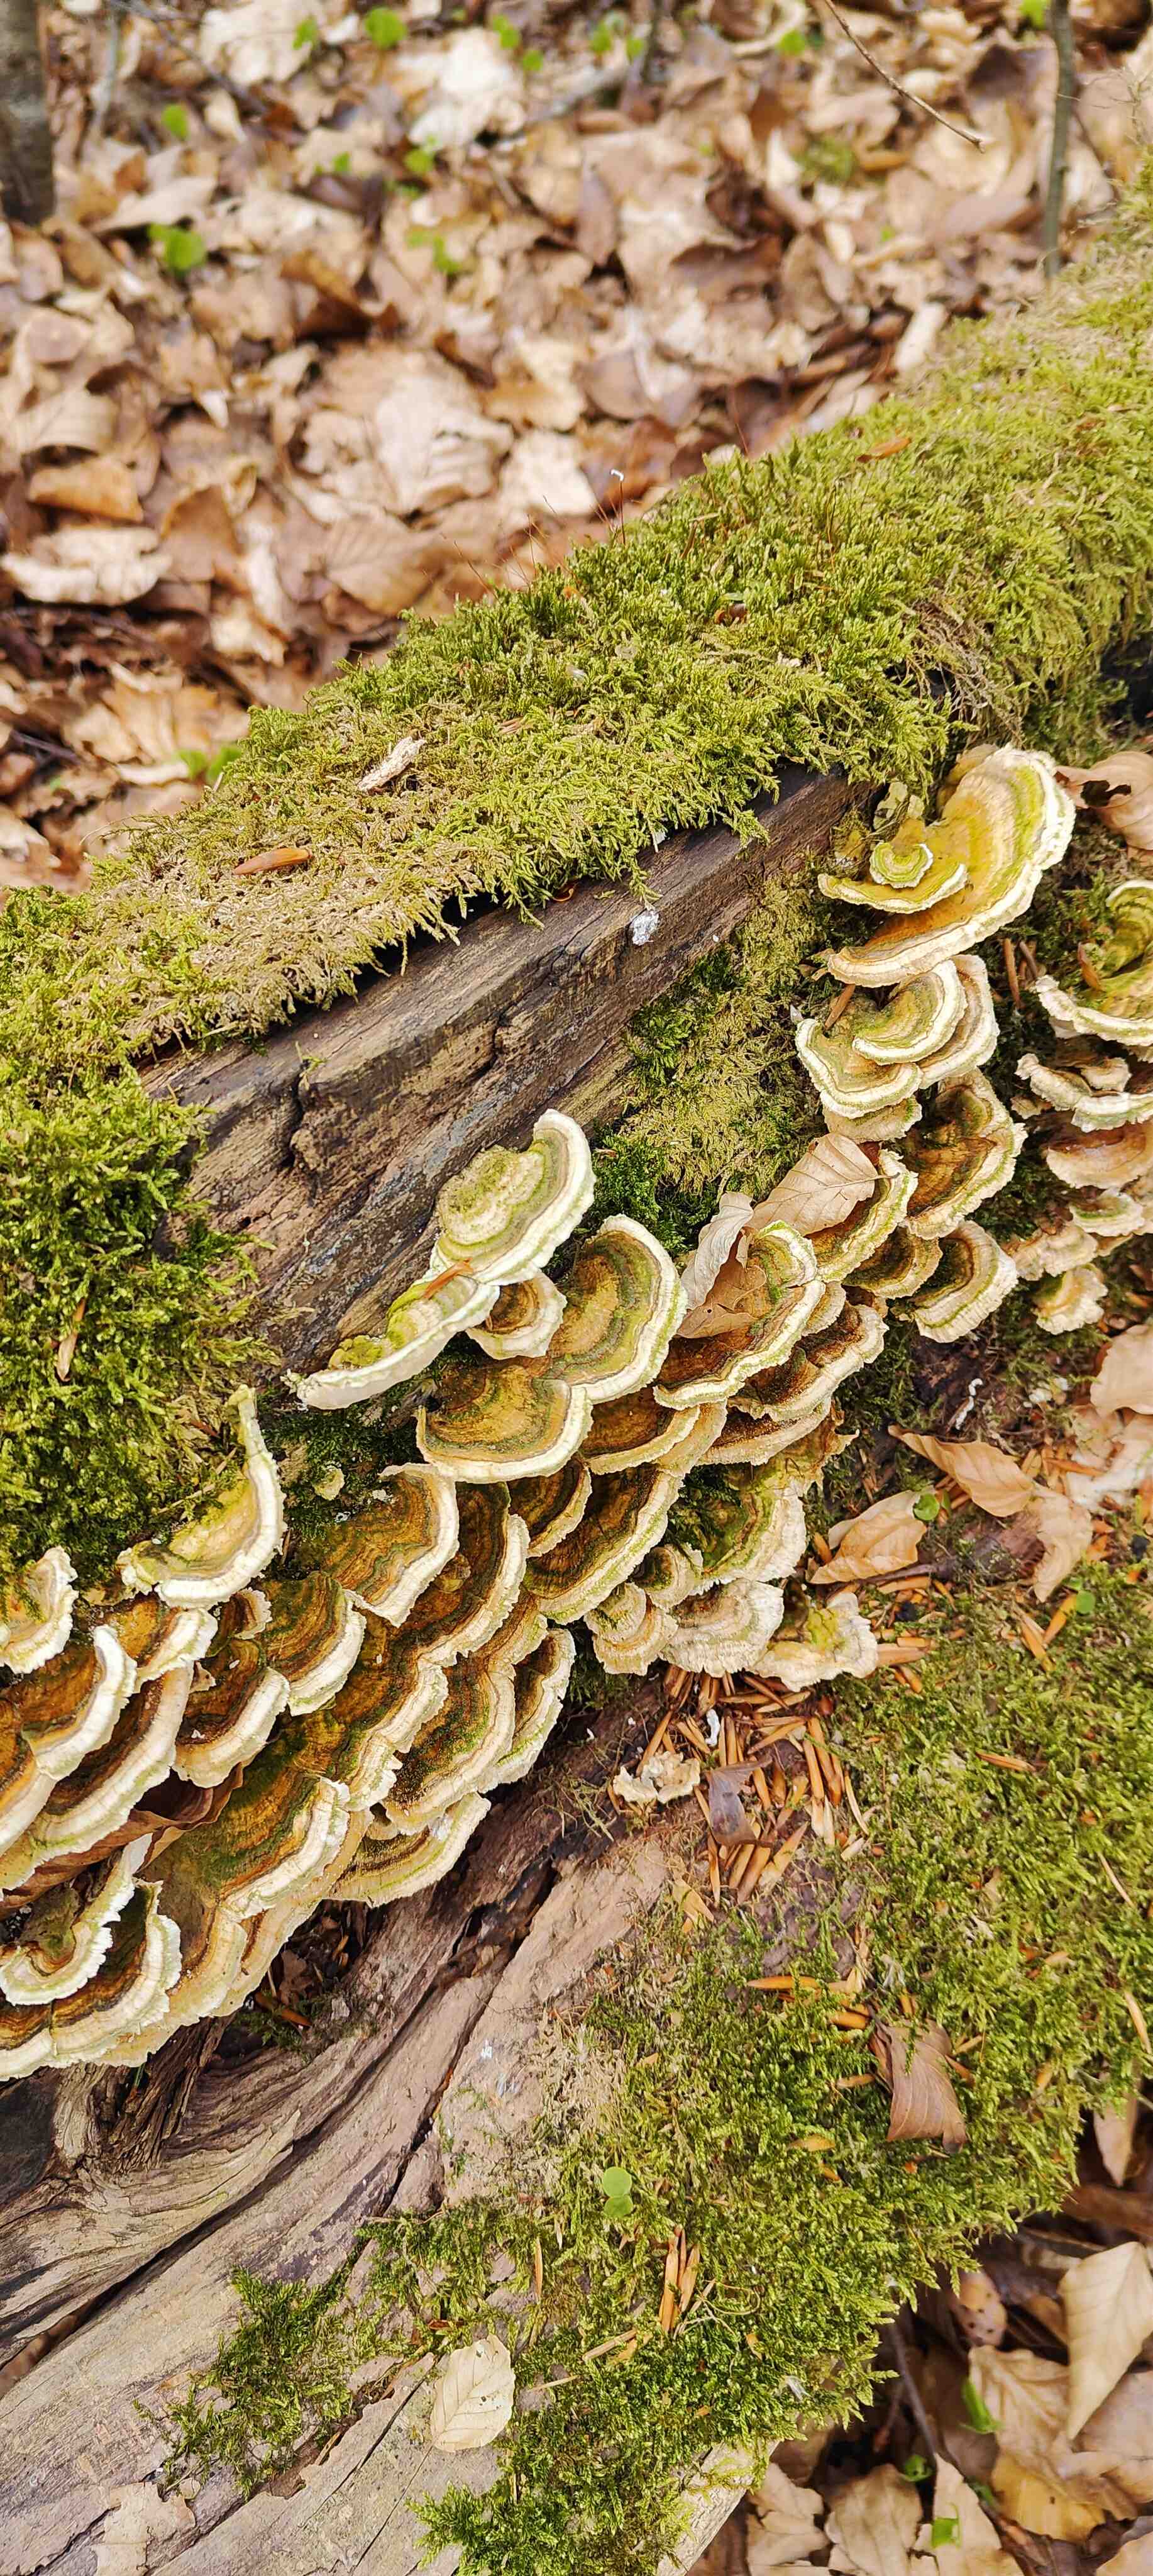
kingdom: Fungi
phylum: Basidiomycota
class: Agaricomycetes
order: Polyporales
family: Polyporaceae
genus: Trametes
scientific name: Trametes versicolor
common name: broget læderporesvamp
